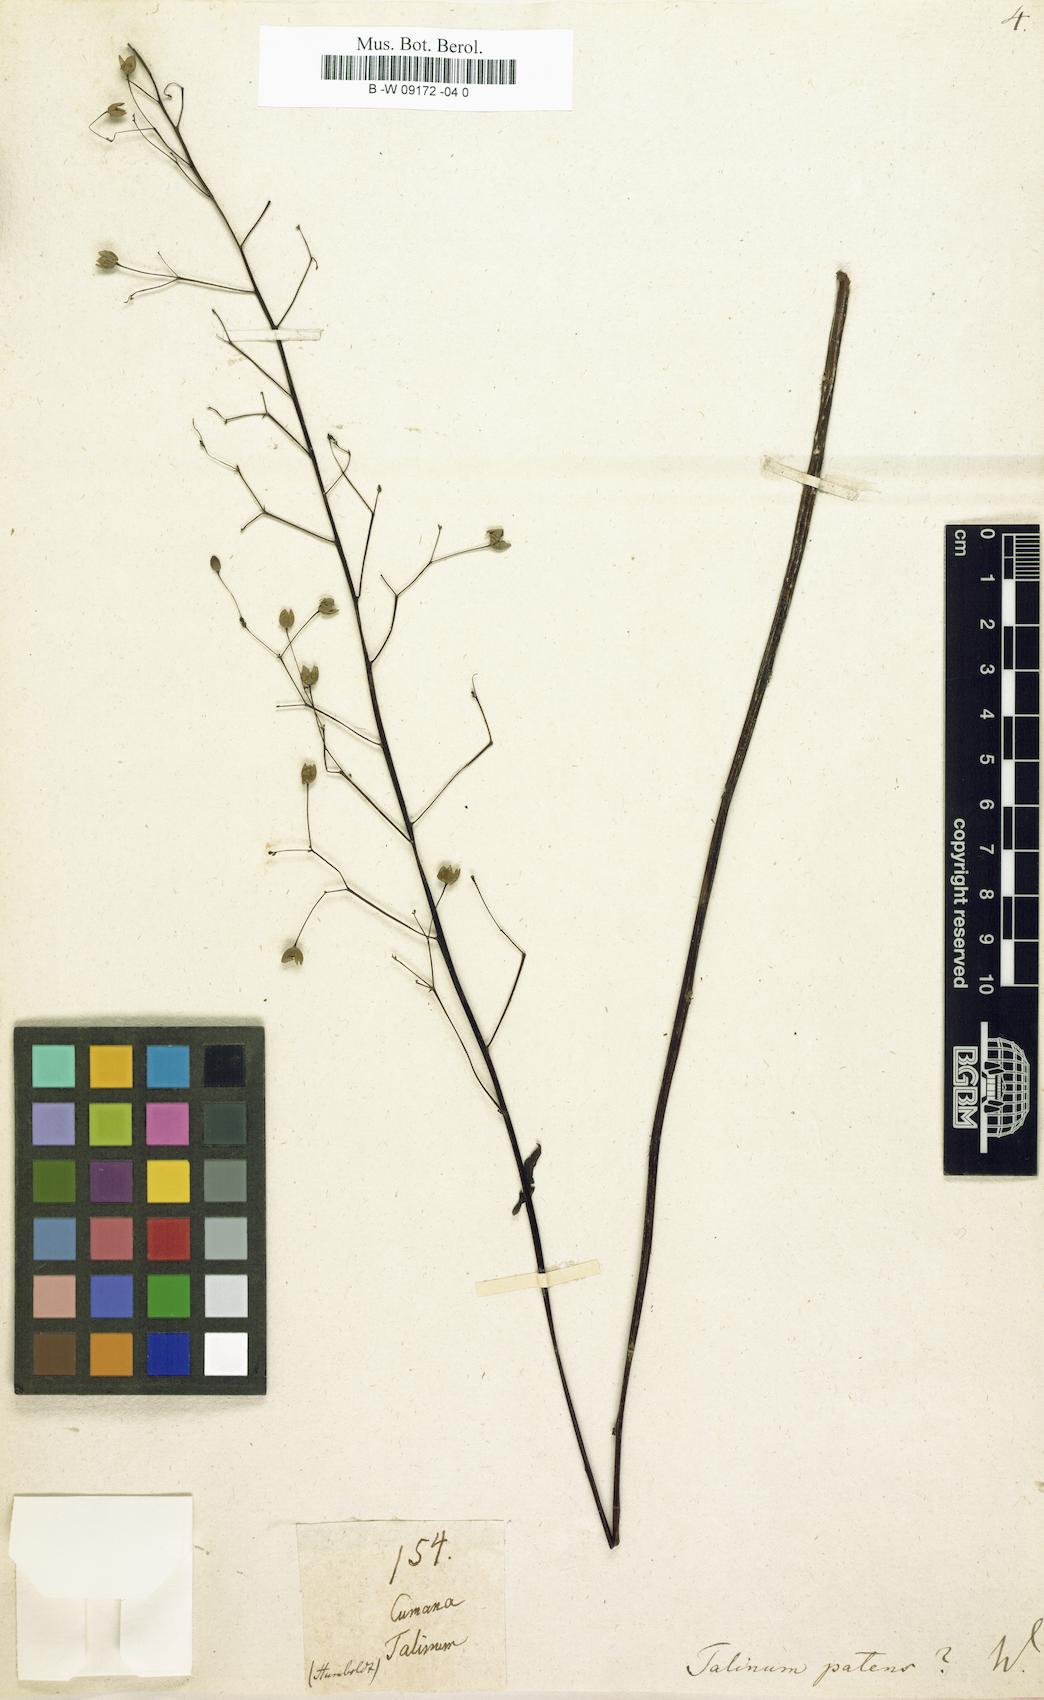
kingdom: Plantae
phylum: Tracheophyta
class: Magnoliopsida
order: Caryophyllales
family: Talinaceae
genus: Talinum
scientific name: Talinum paniculatum
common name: Jewels of opar
